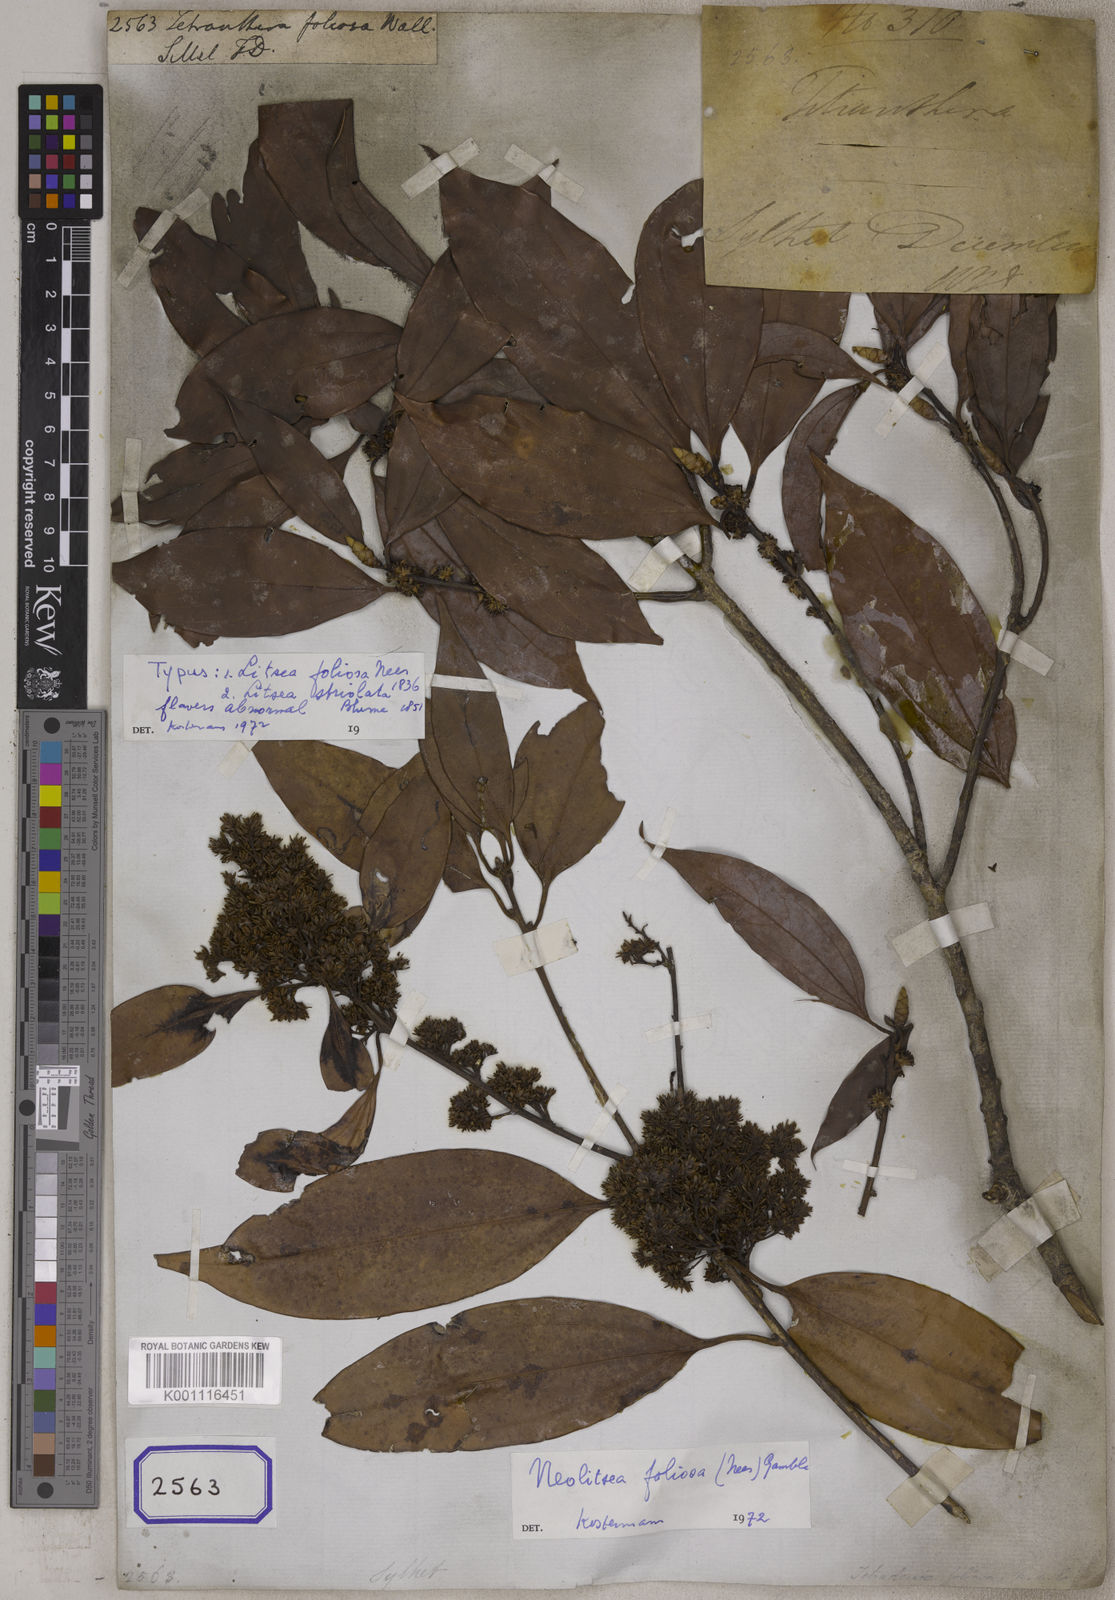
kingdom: Plantae
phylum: Tracheophyta
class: Magnoliopsida
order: Laurales
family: Lauraceae
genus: Neolitsea
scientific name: Neolitsea cassia
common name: Laurel
